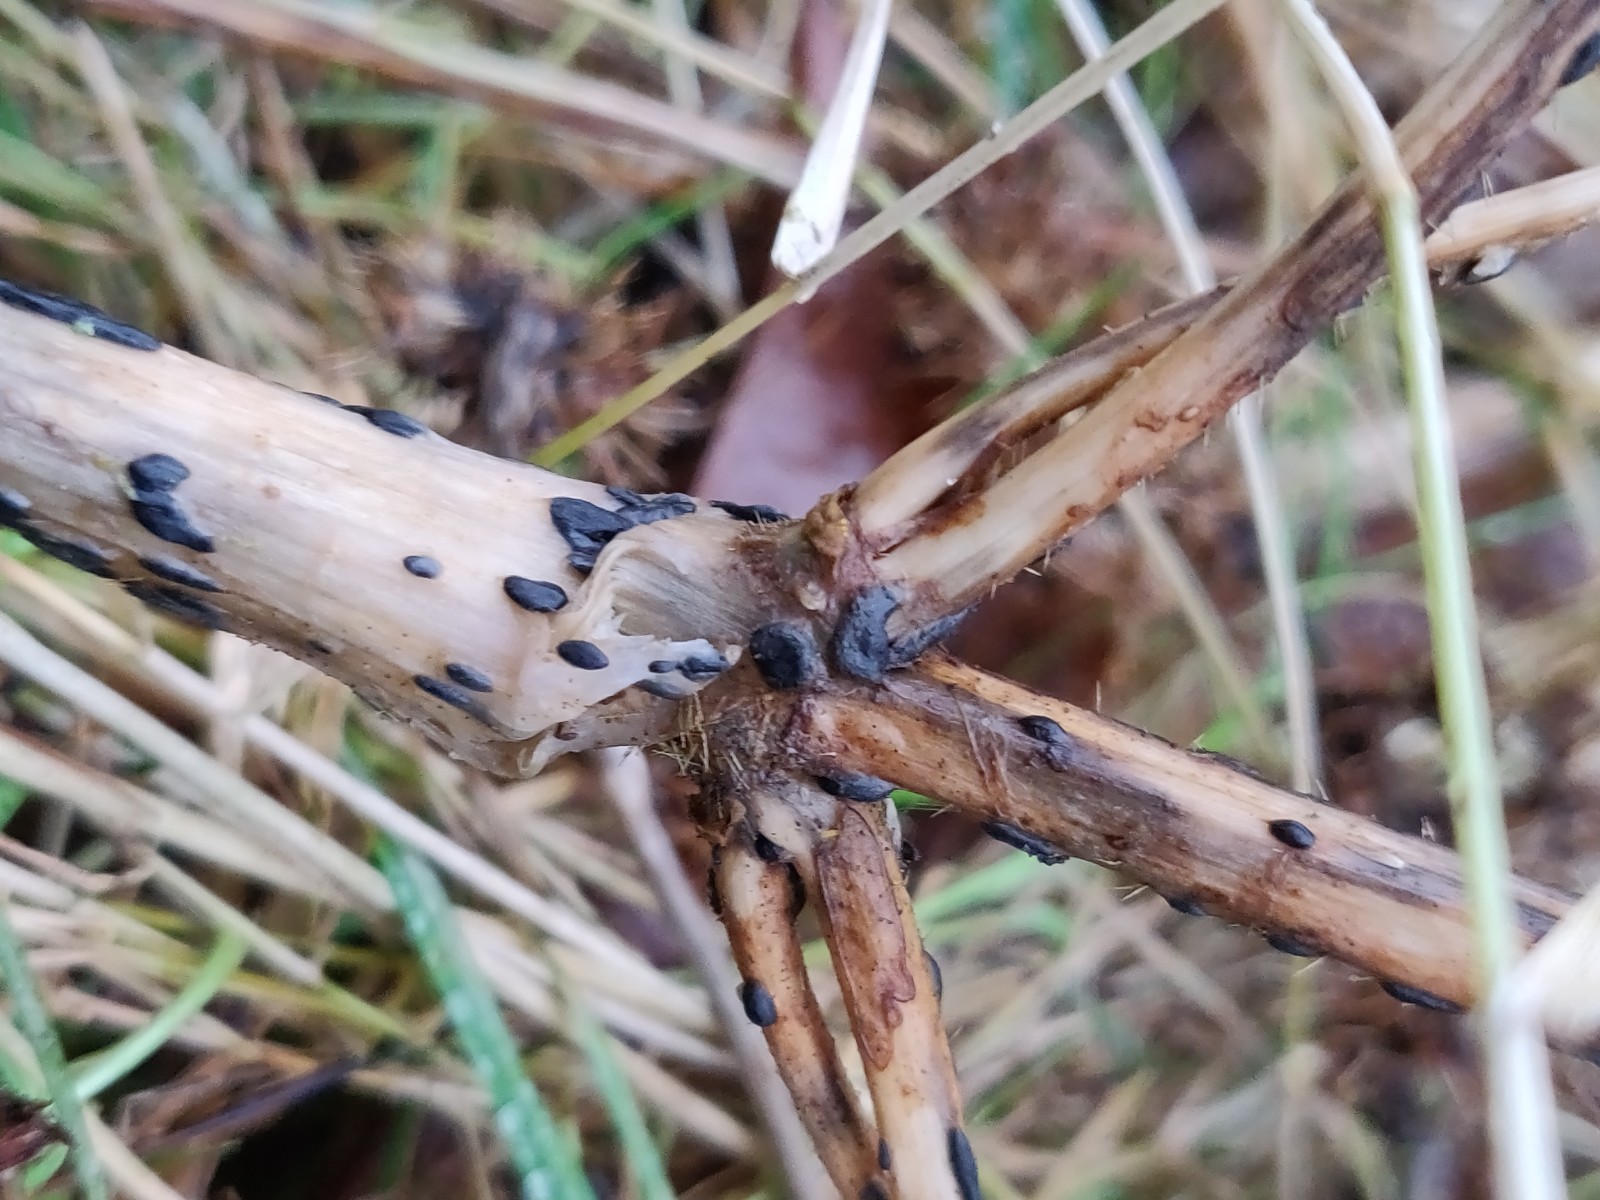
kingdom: Fungi
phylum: Basidiomycota
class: Agaricomycetes
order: Agaricales
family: Typhulaceae
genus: Sclerotium
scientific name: Sclerotium
